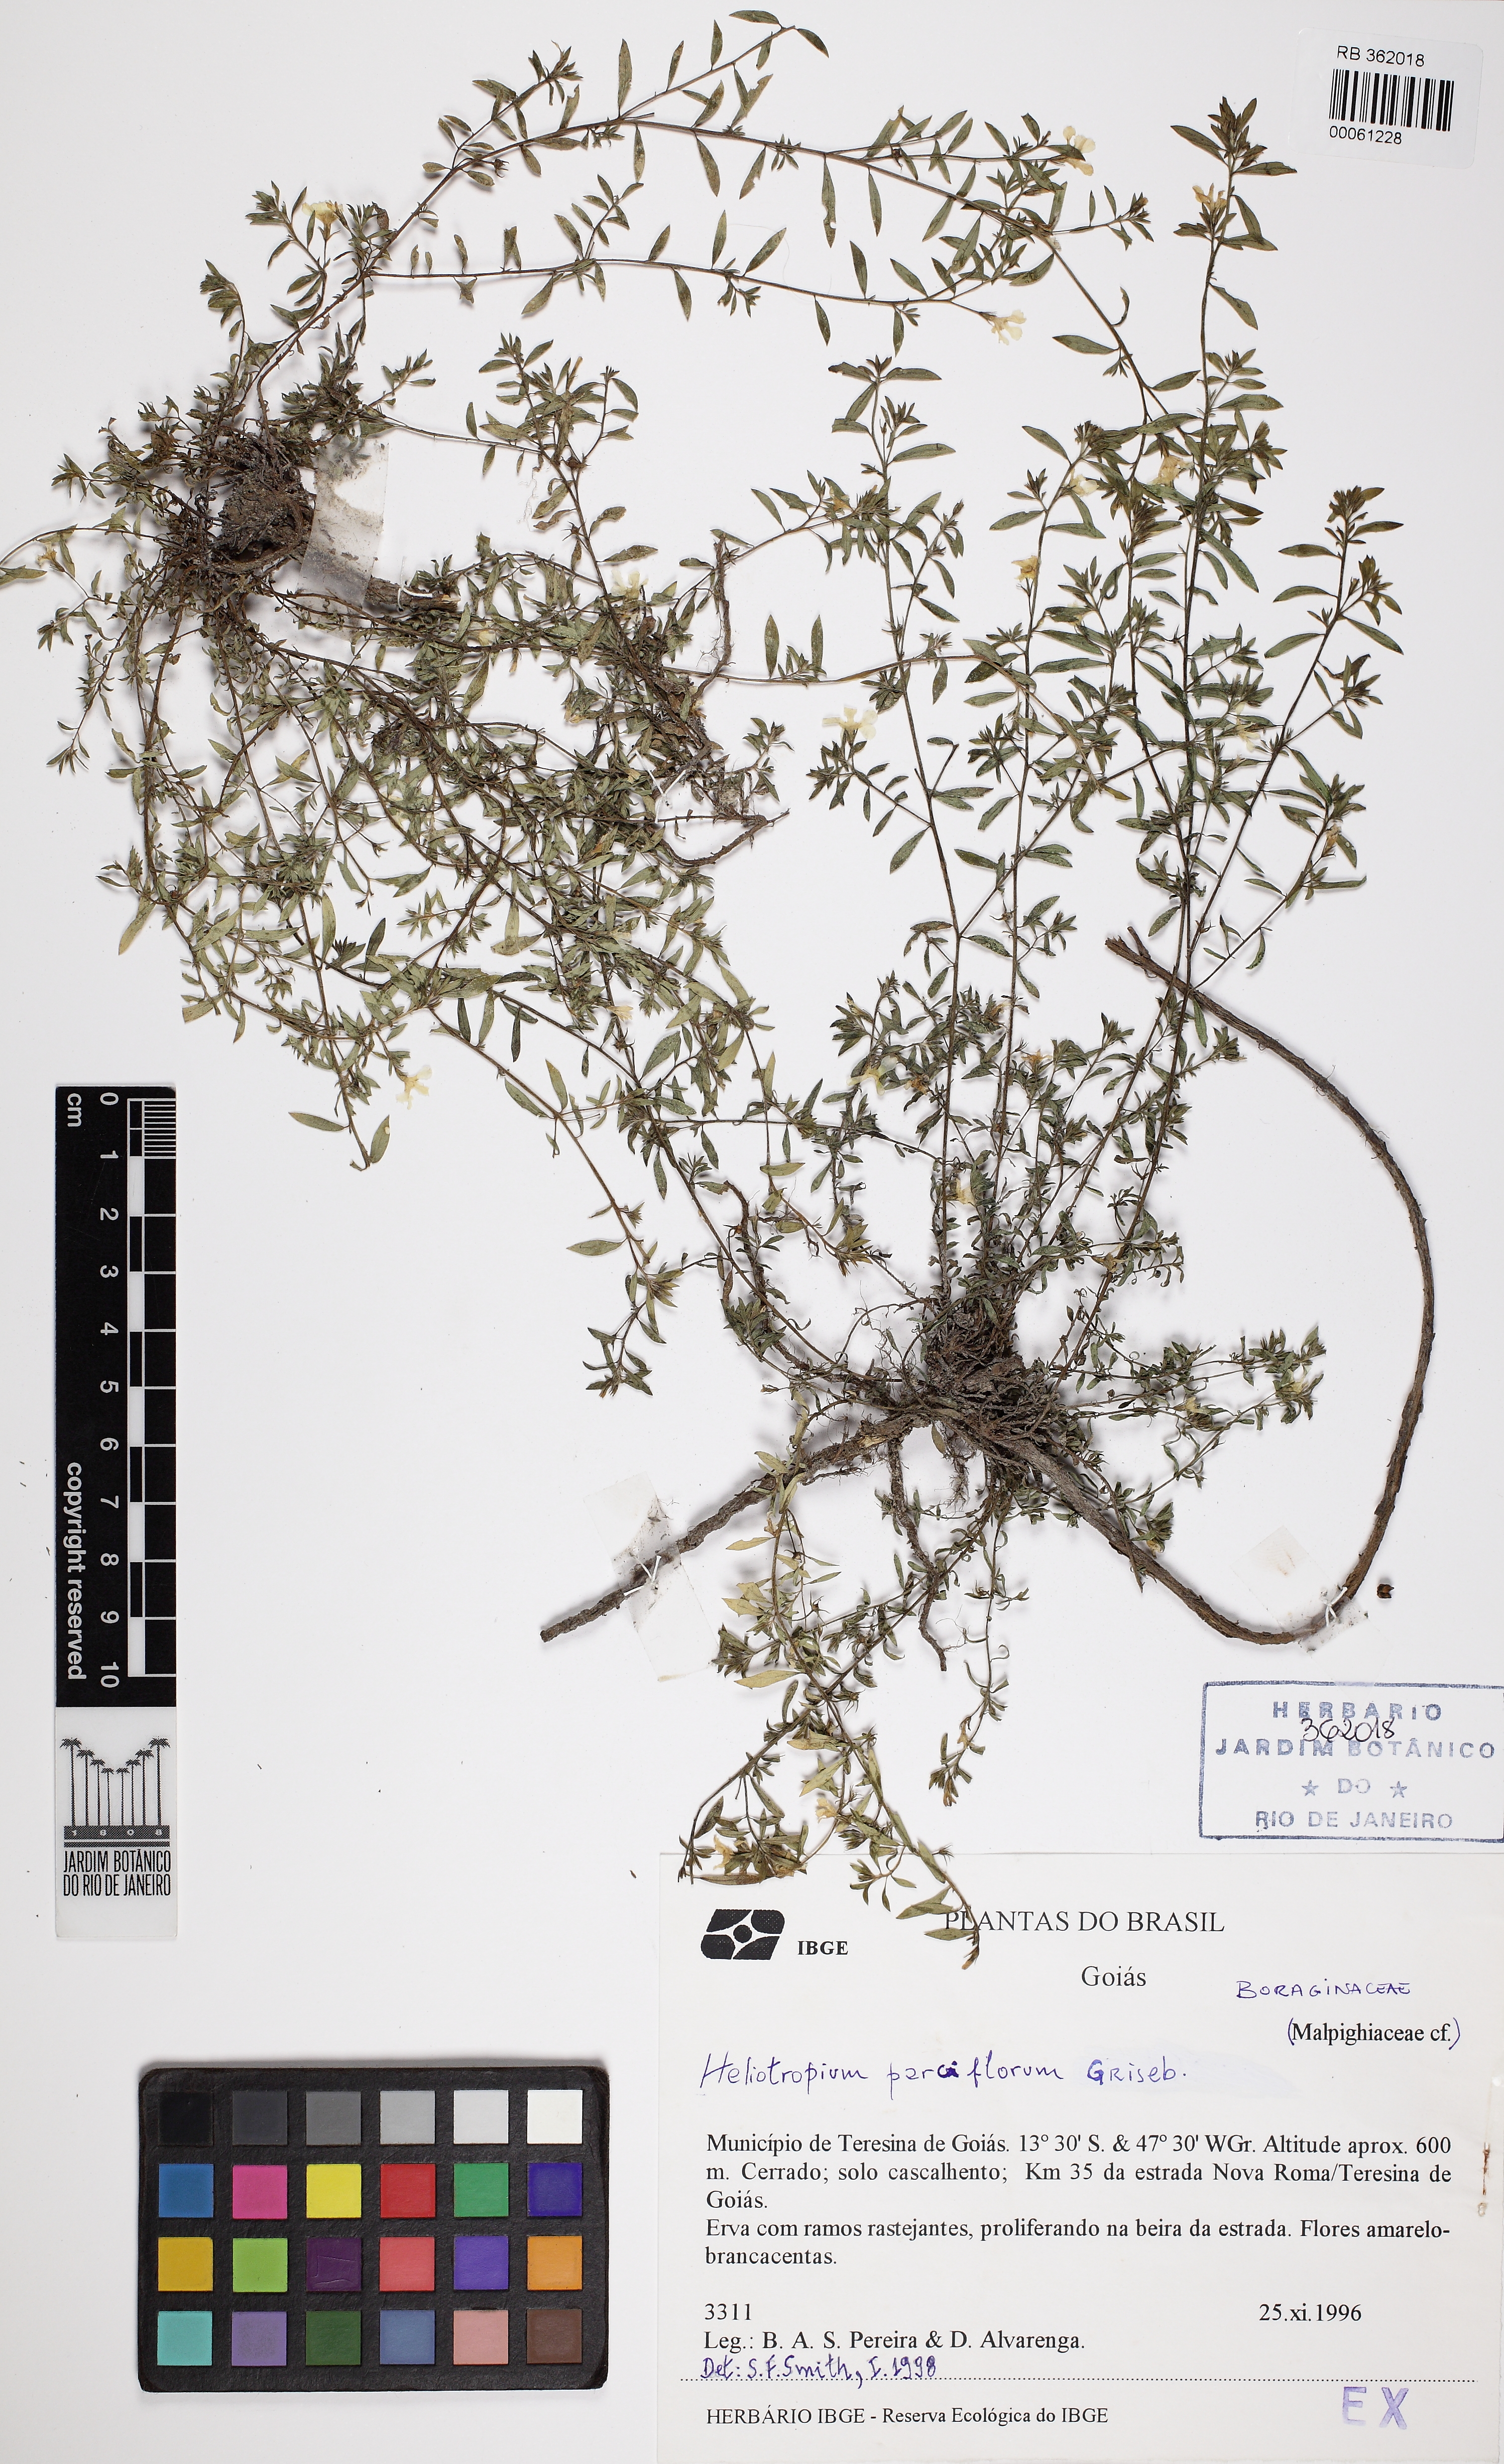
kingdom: Plantae
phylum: Tracheophyta
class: Magnoliopsida
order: Boraginales
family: Heliotropiaceae
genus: Euploca
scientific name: Euploca antillana
